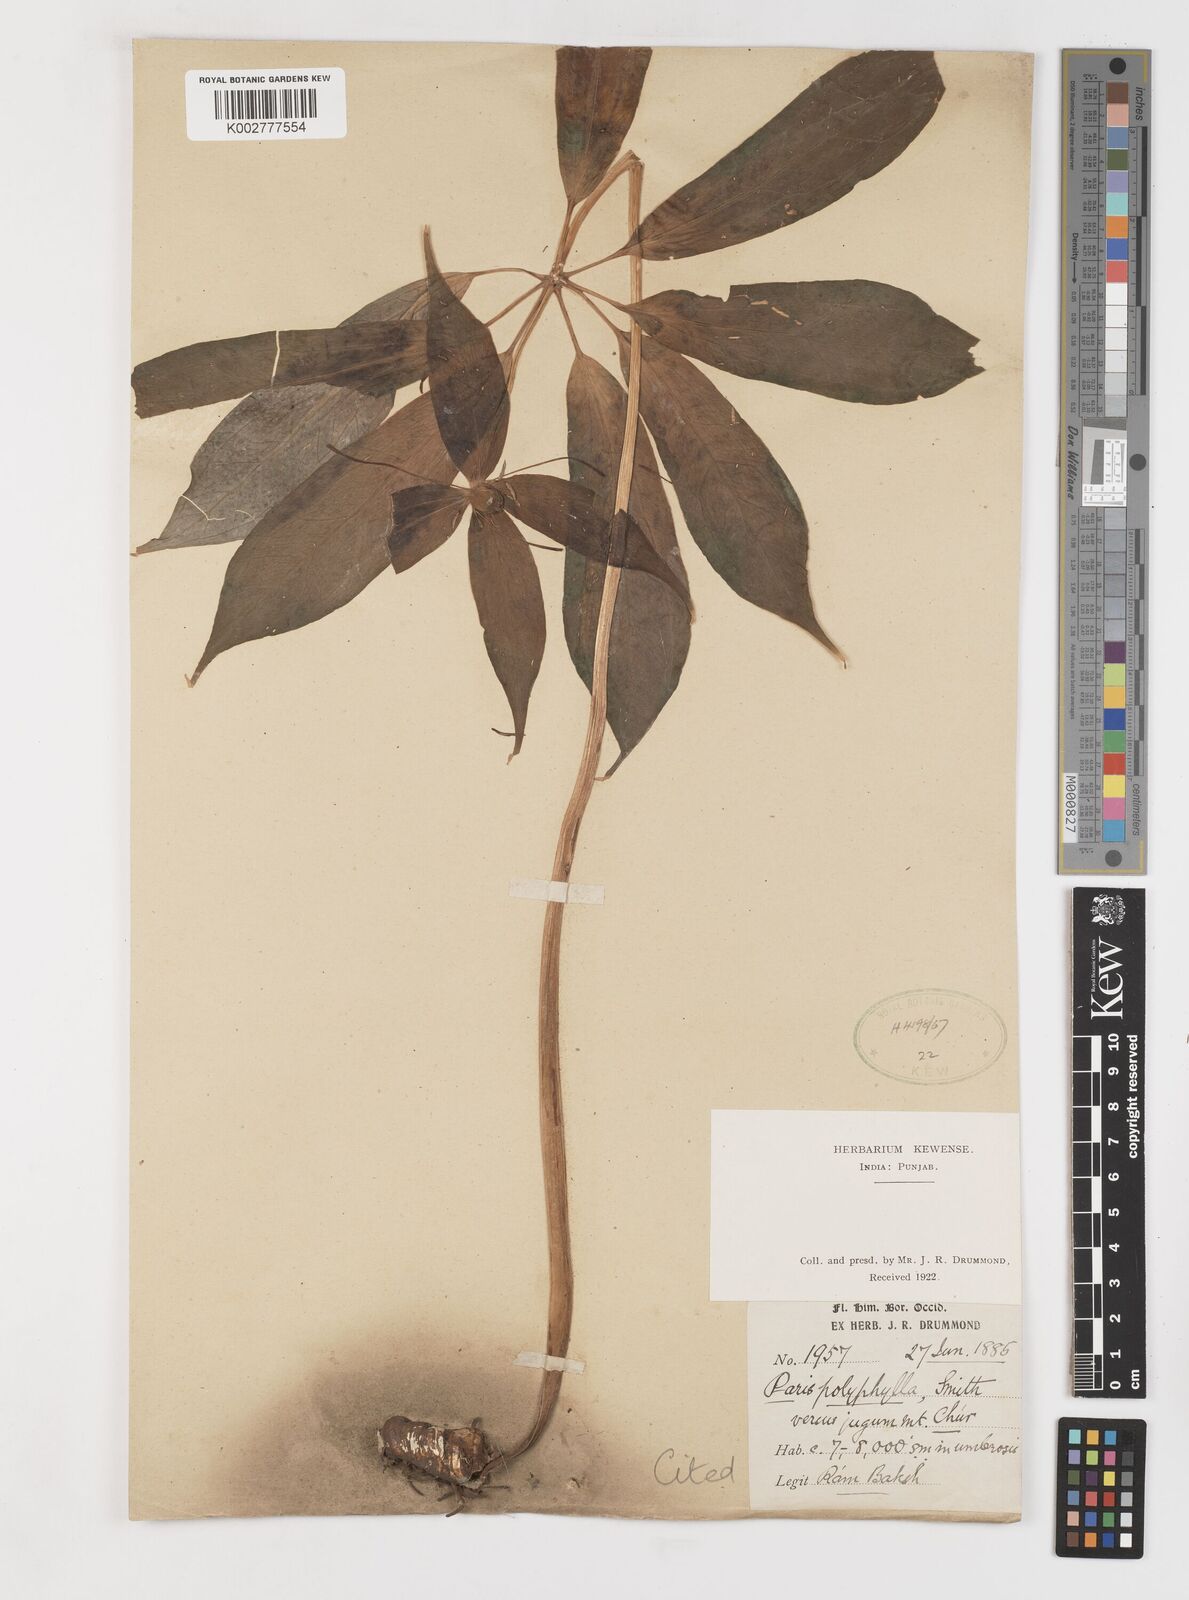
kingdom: Plantae
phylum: Tracheophyta
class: Liliopsida
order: Liliales
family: Melanthiaceae
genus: Paris
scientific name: Paris polyphylla
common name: Love apple
